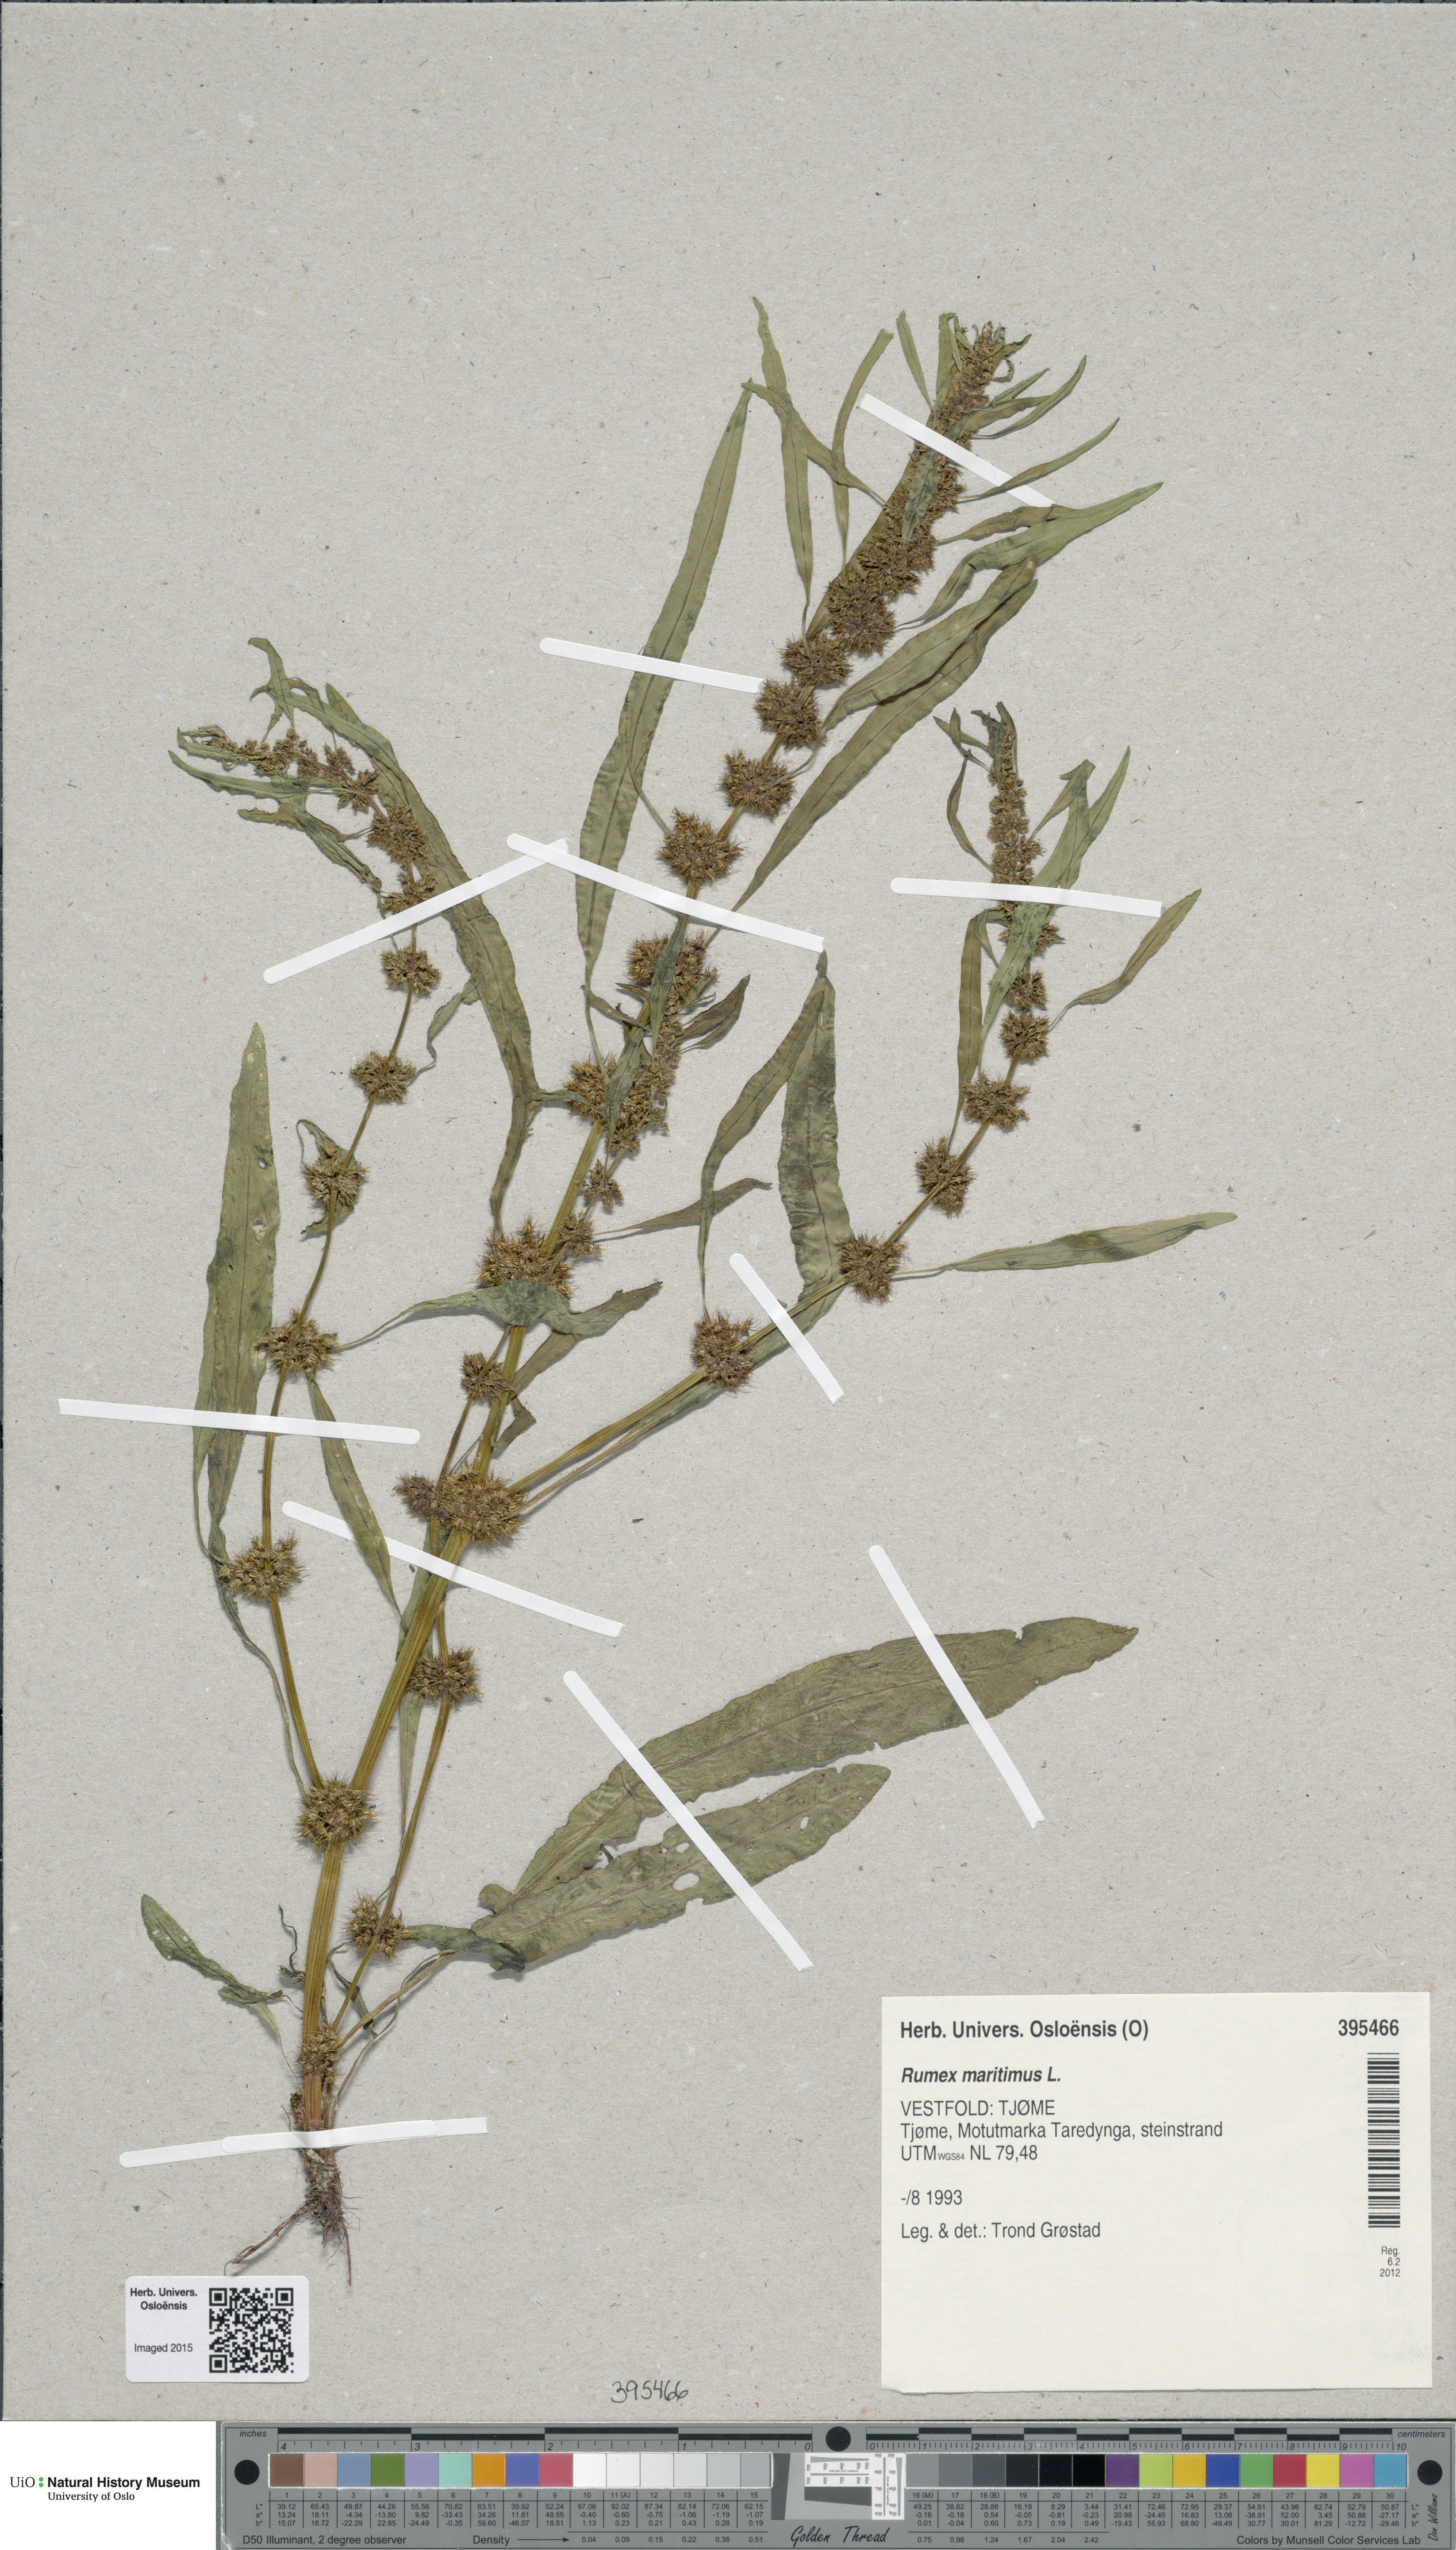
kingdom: Plantae
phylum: Tracheophyta
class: Magnoliopsida
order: Caryophyllales
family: Polygonaceae
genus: Rumex
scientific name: Rumex maritimus
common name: Golden dock
